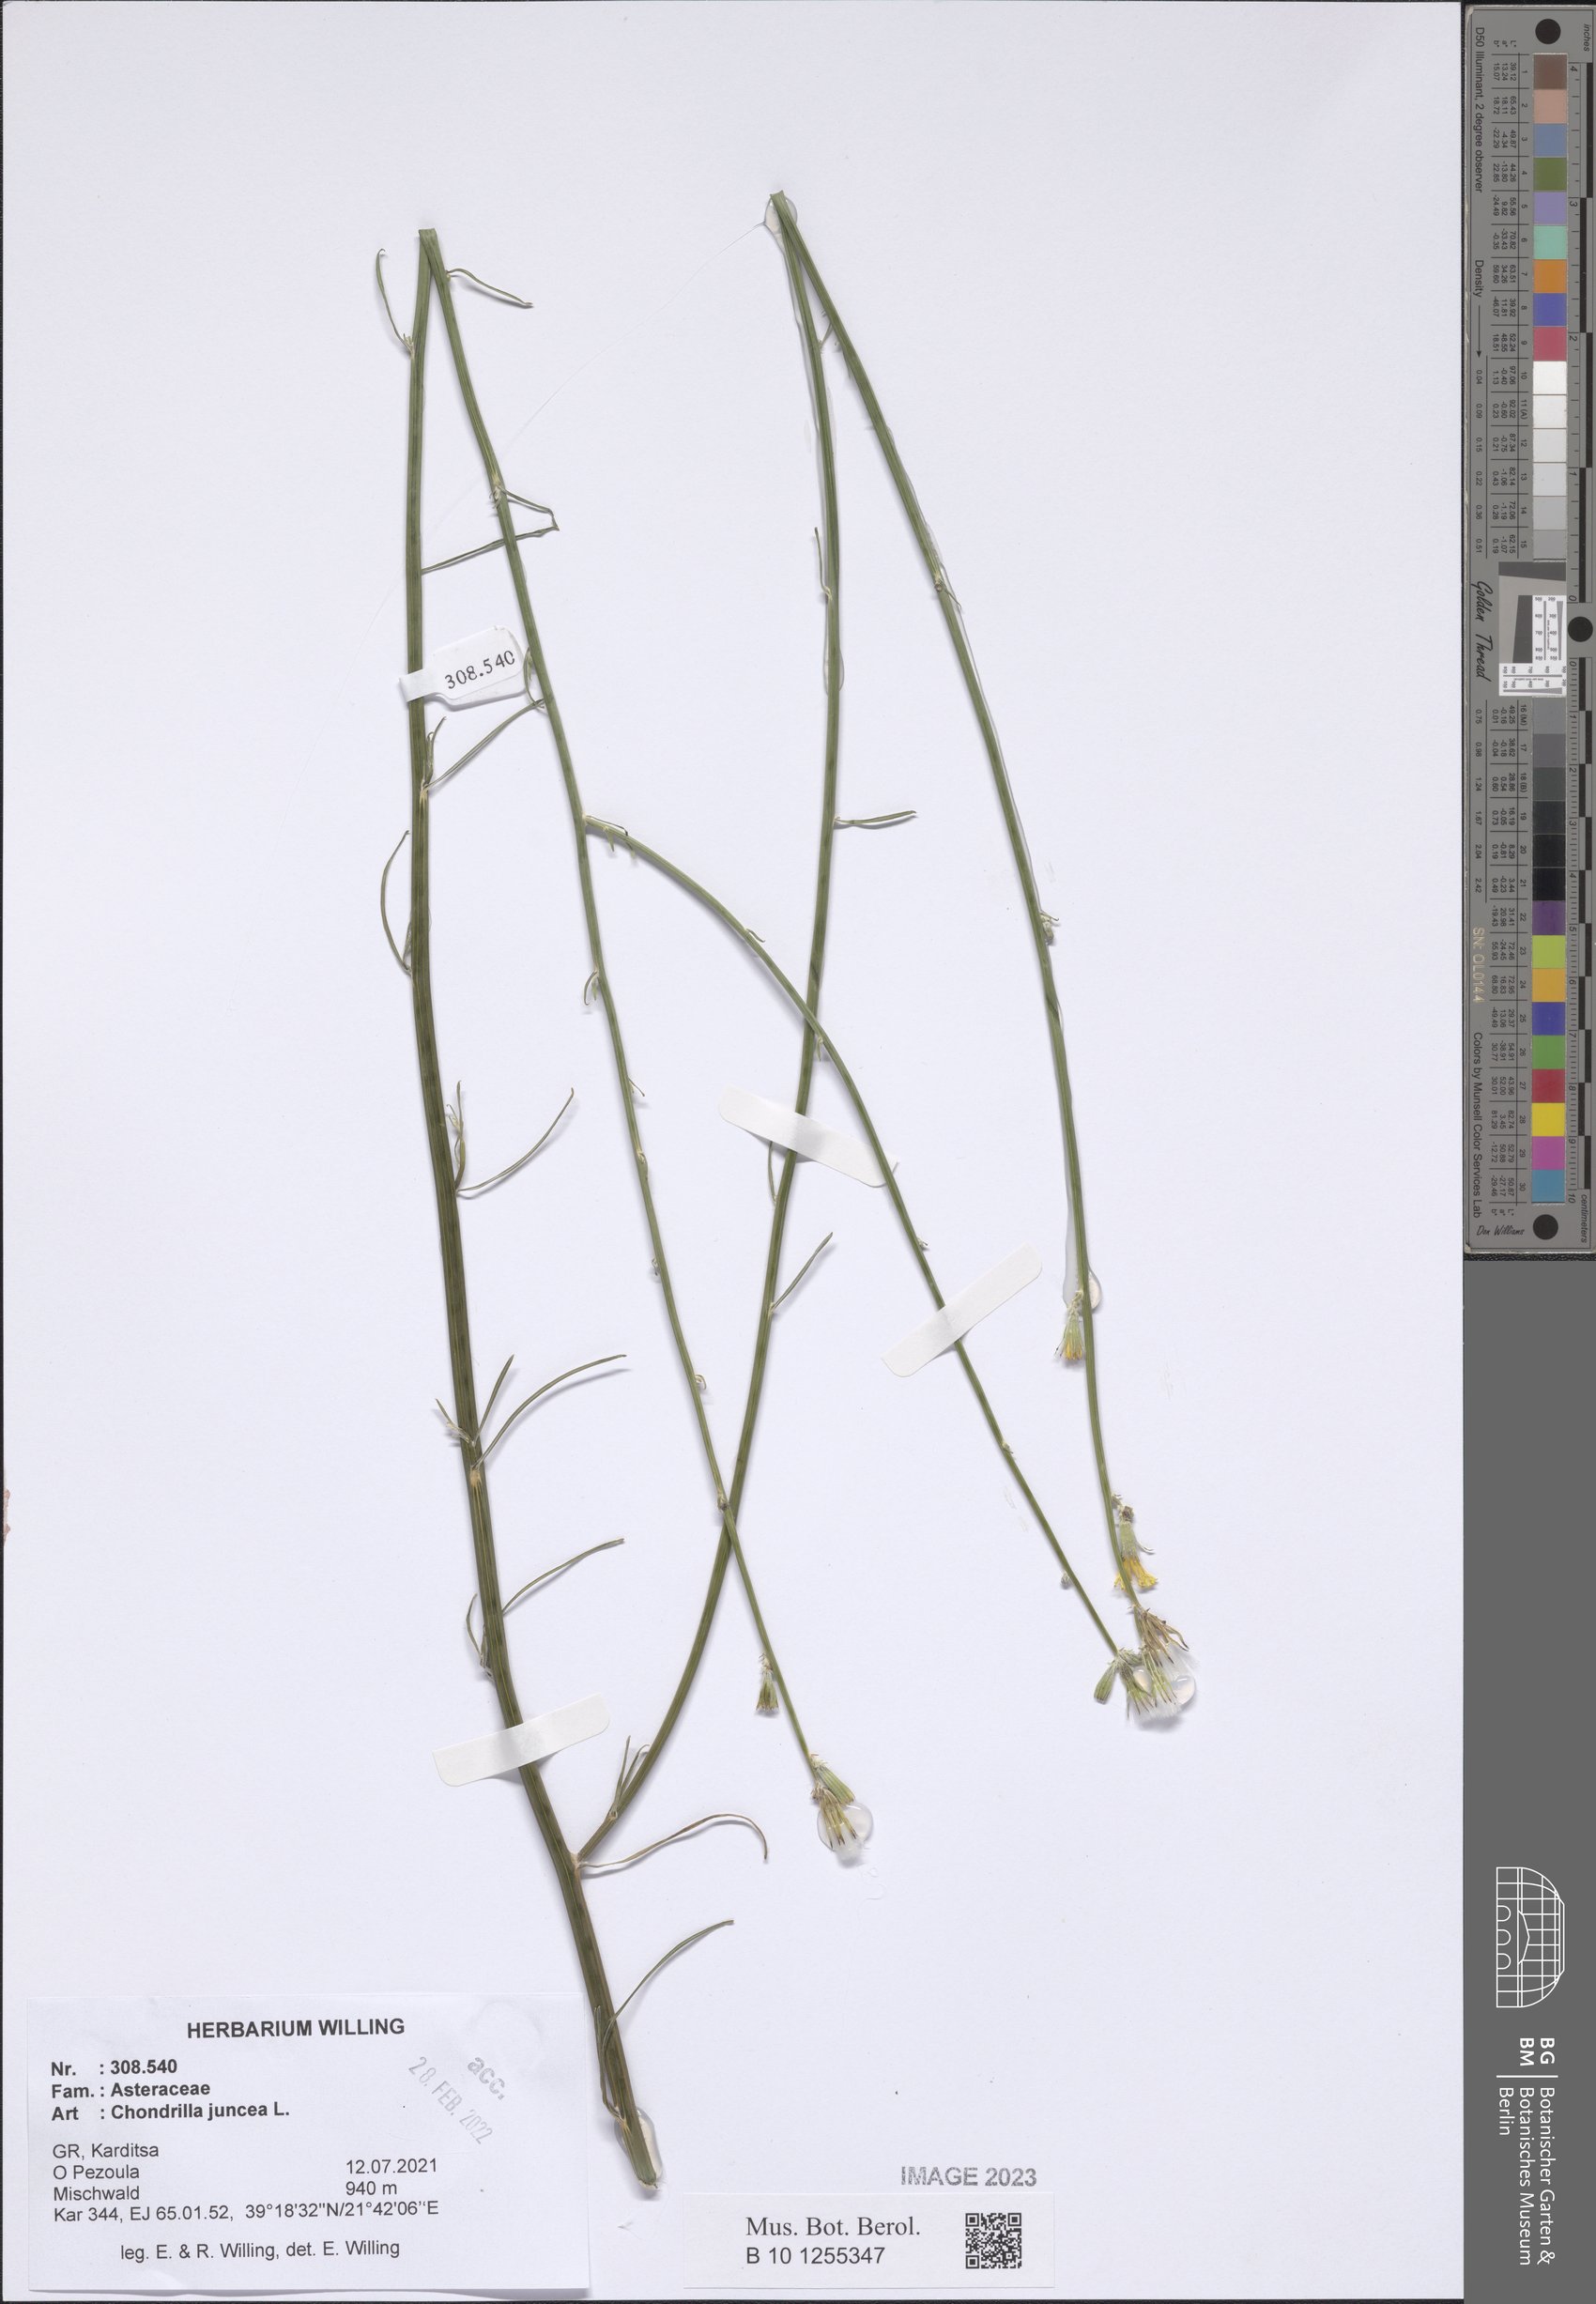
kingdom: Plantae
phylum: Tracheophyta
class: Magnoliopsida
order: Asterales
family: Asteraceae
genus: Chondrilla
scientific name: Chondrilla juncea
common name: Skeleton weed
